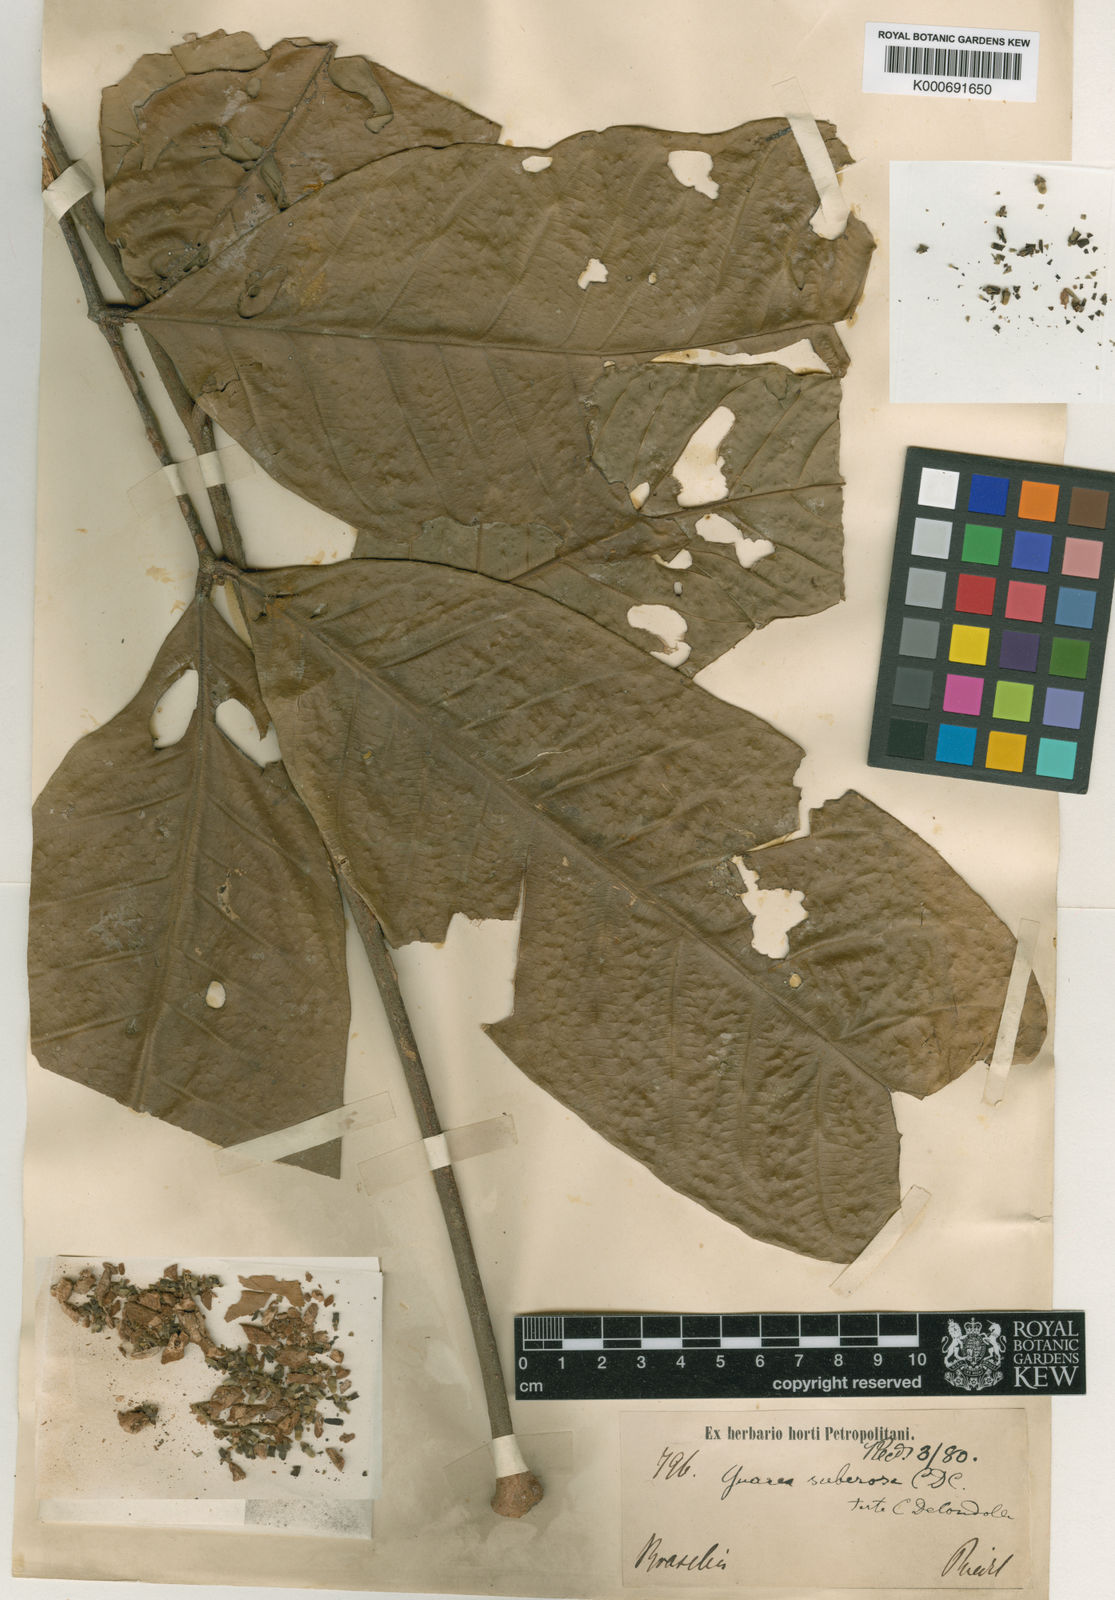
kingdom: Plantae
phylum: Tracheophyta
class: Magnoliopsida
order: Sapindales
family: Meliaceae
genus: Guarea
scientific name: Guarea suberosa
